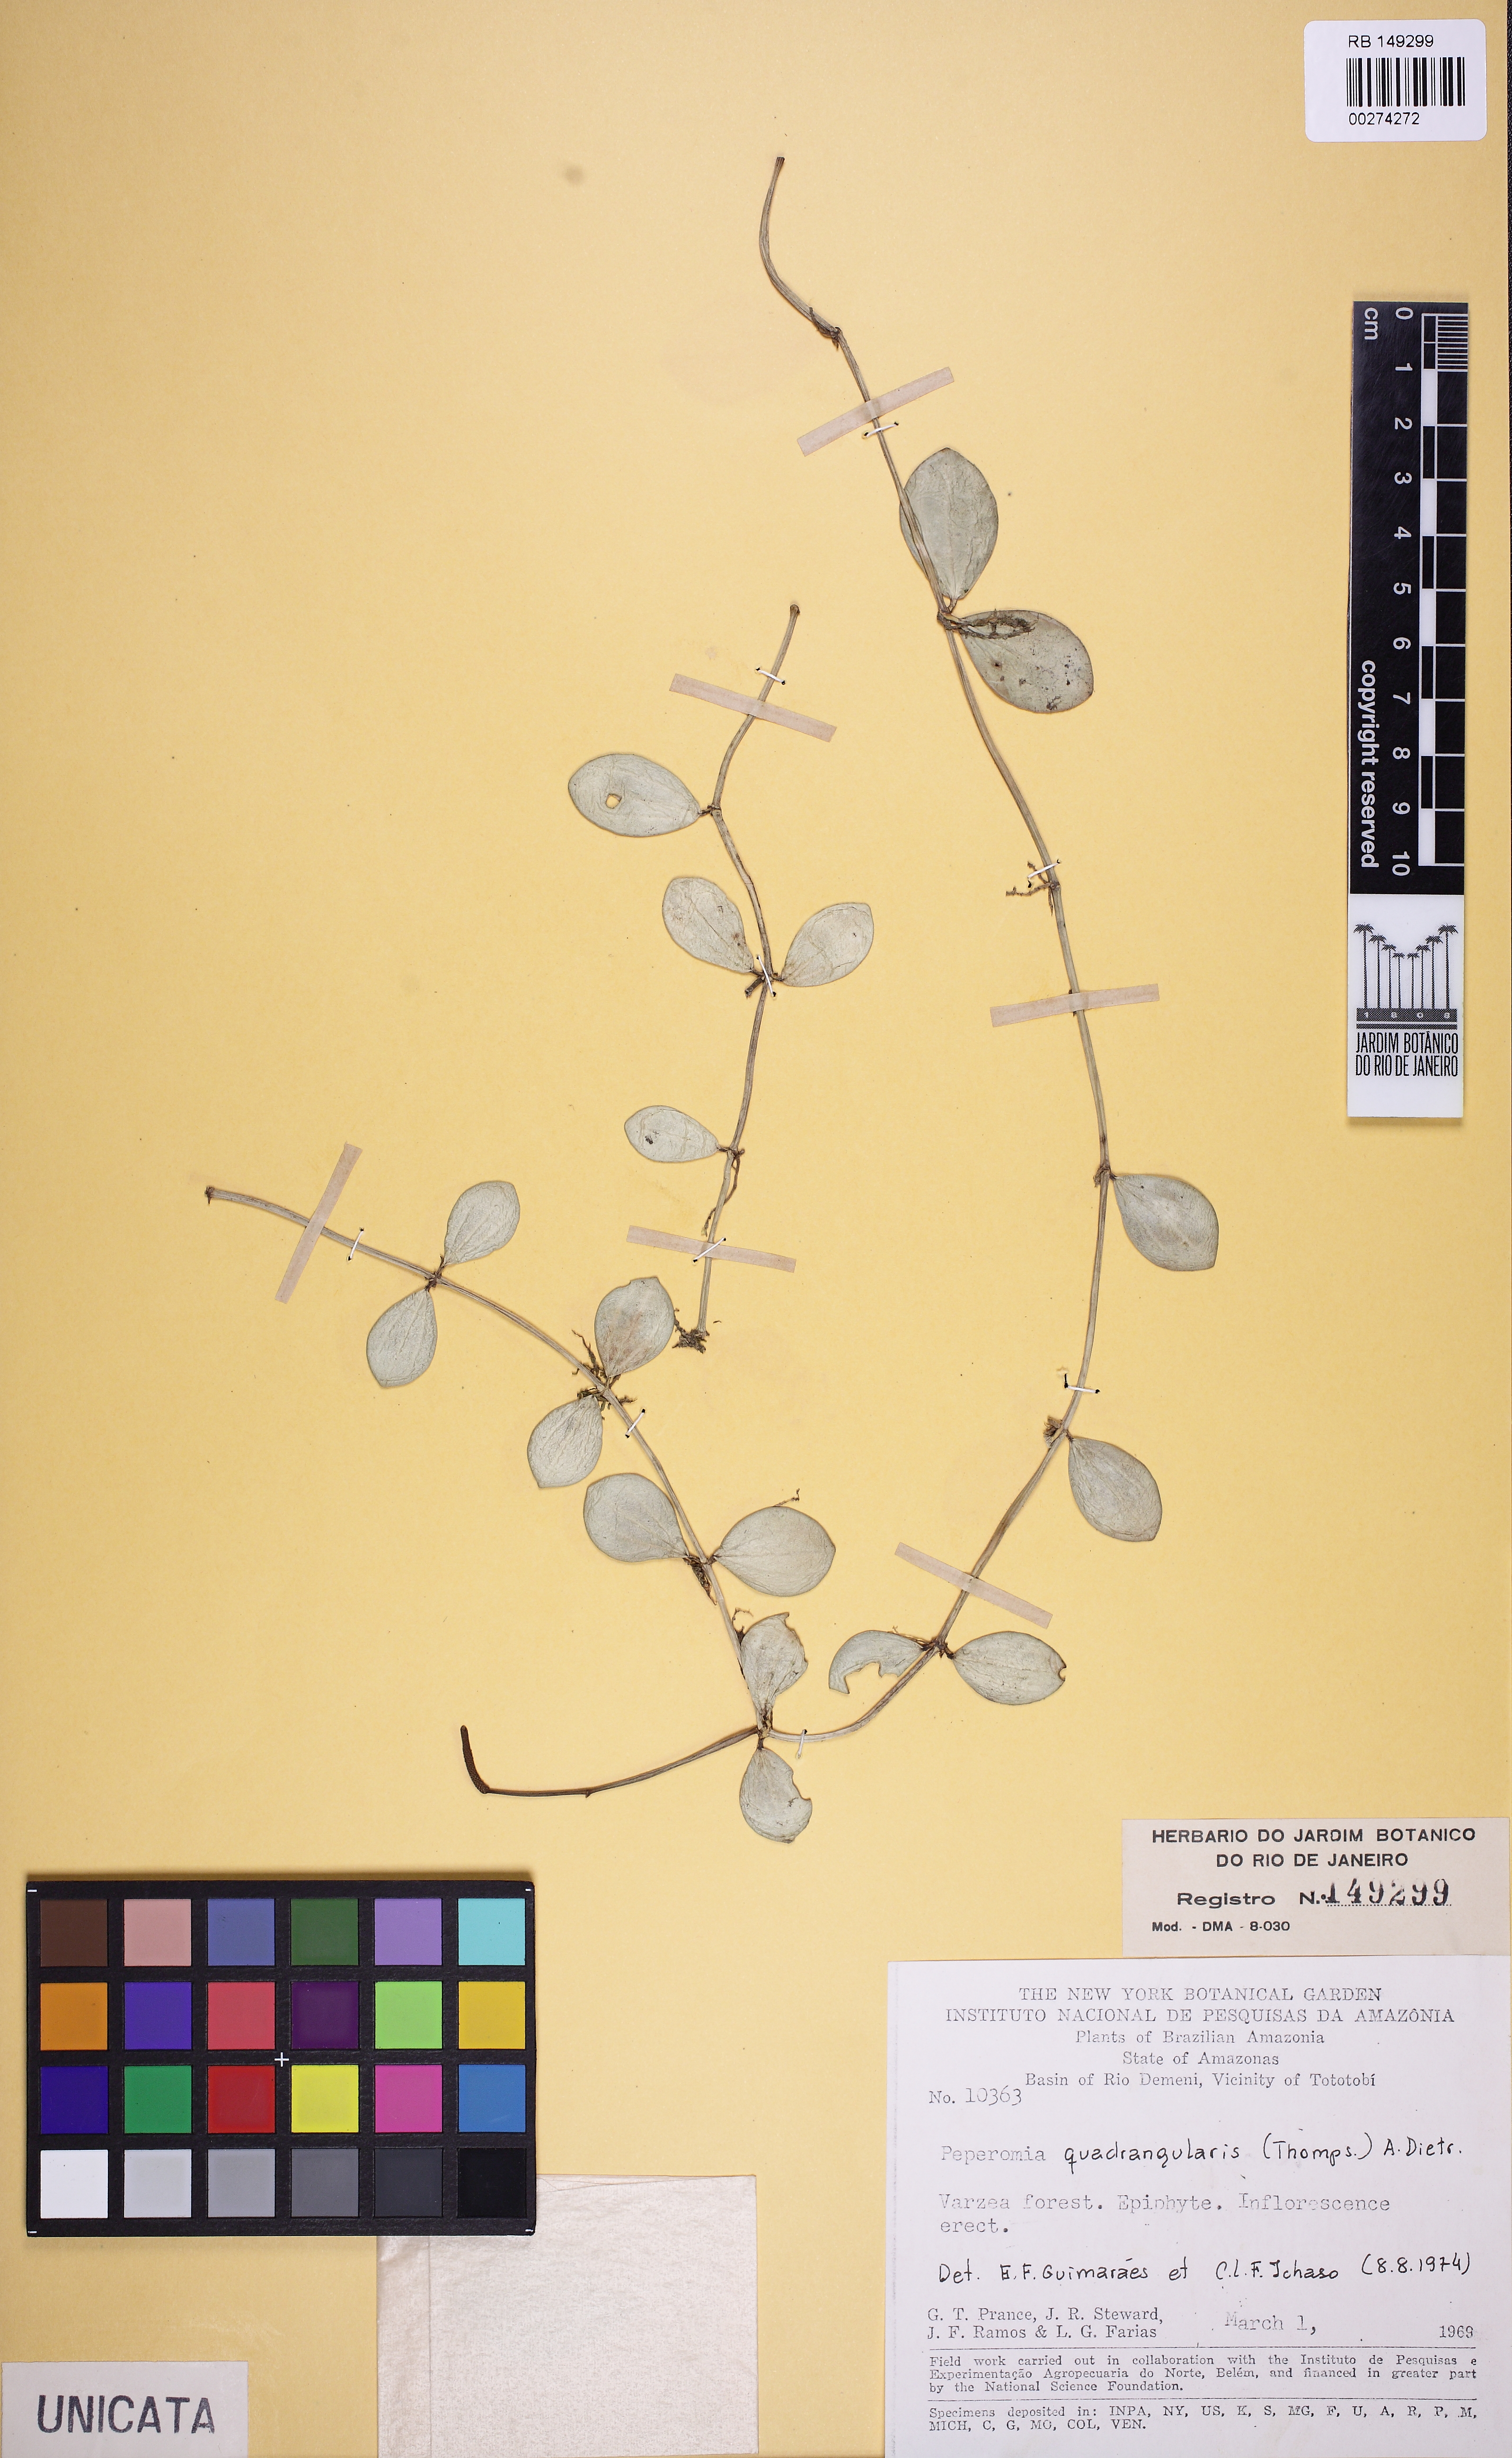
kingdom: Plantae
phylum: Tracheophyta
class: Magnoliopsida
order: Piperales
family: Piperaceae
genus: Peperomia
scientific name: Peperomia quadrangularis
